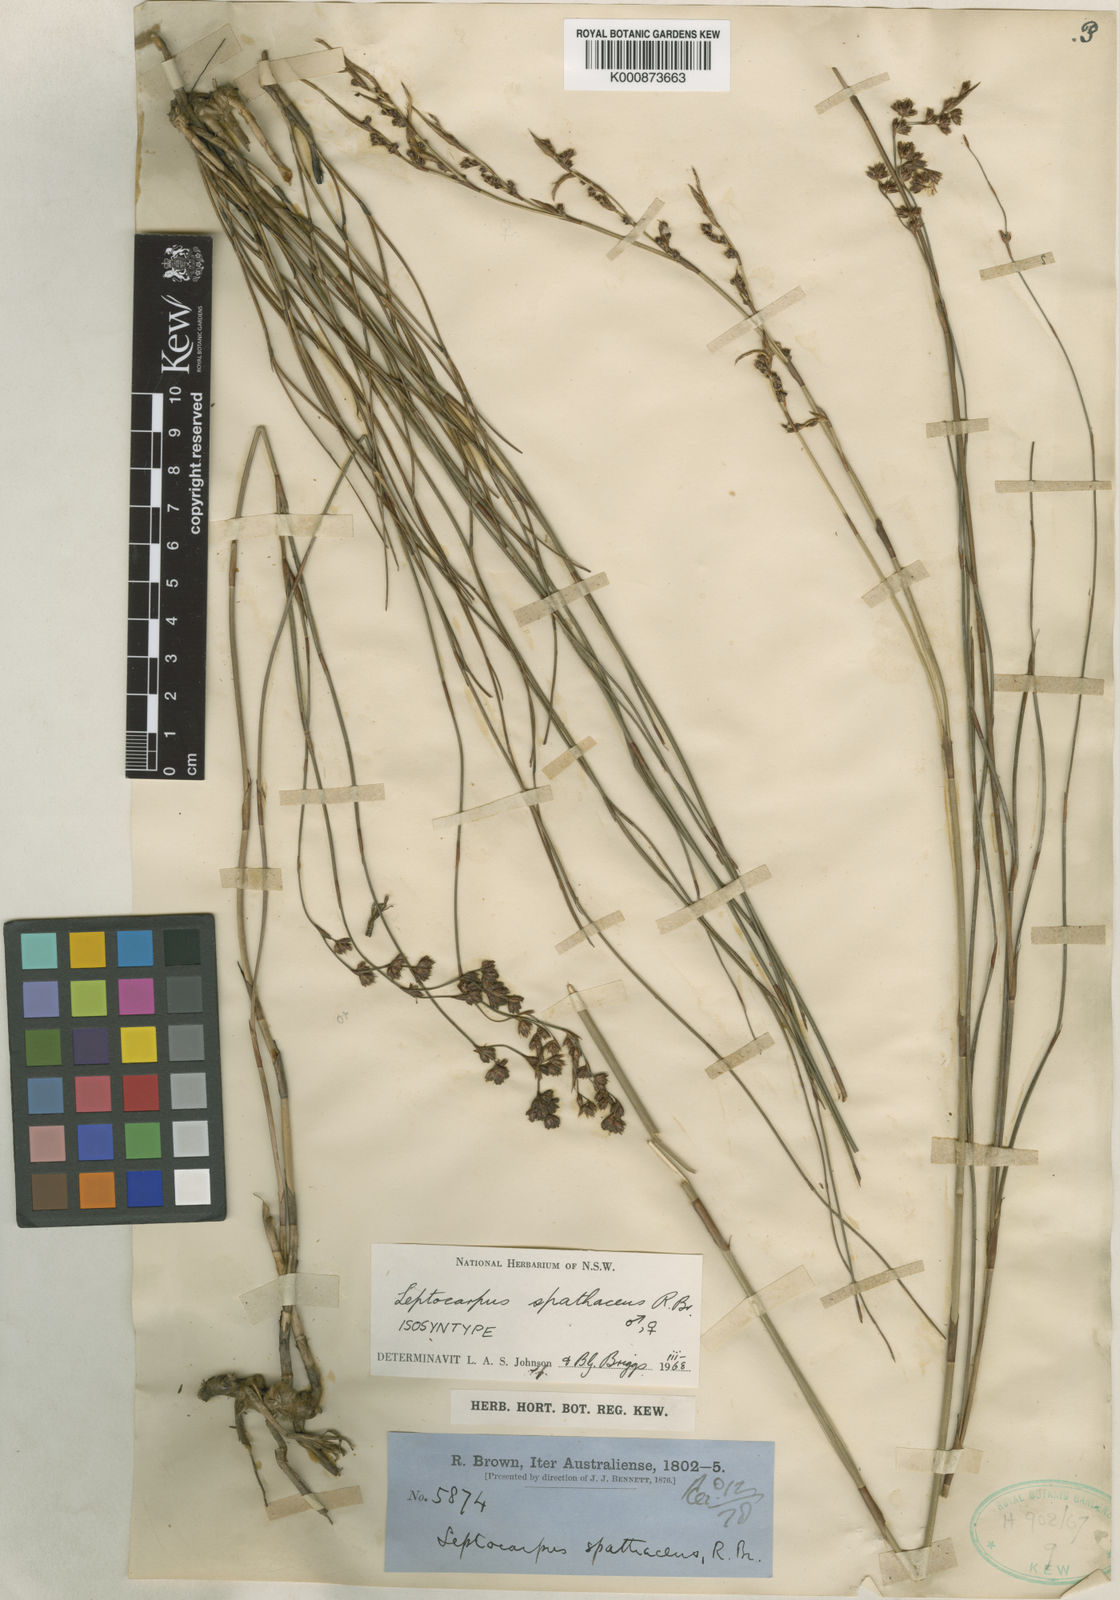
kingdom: Plantae
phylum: Tracheophyta
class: Liliopsida
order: Poales
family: Restionaceae
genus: Dapsilanthus
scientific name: Dapsilanthus spathaceus
